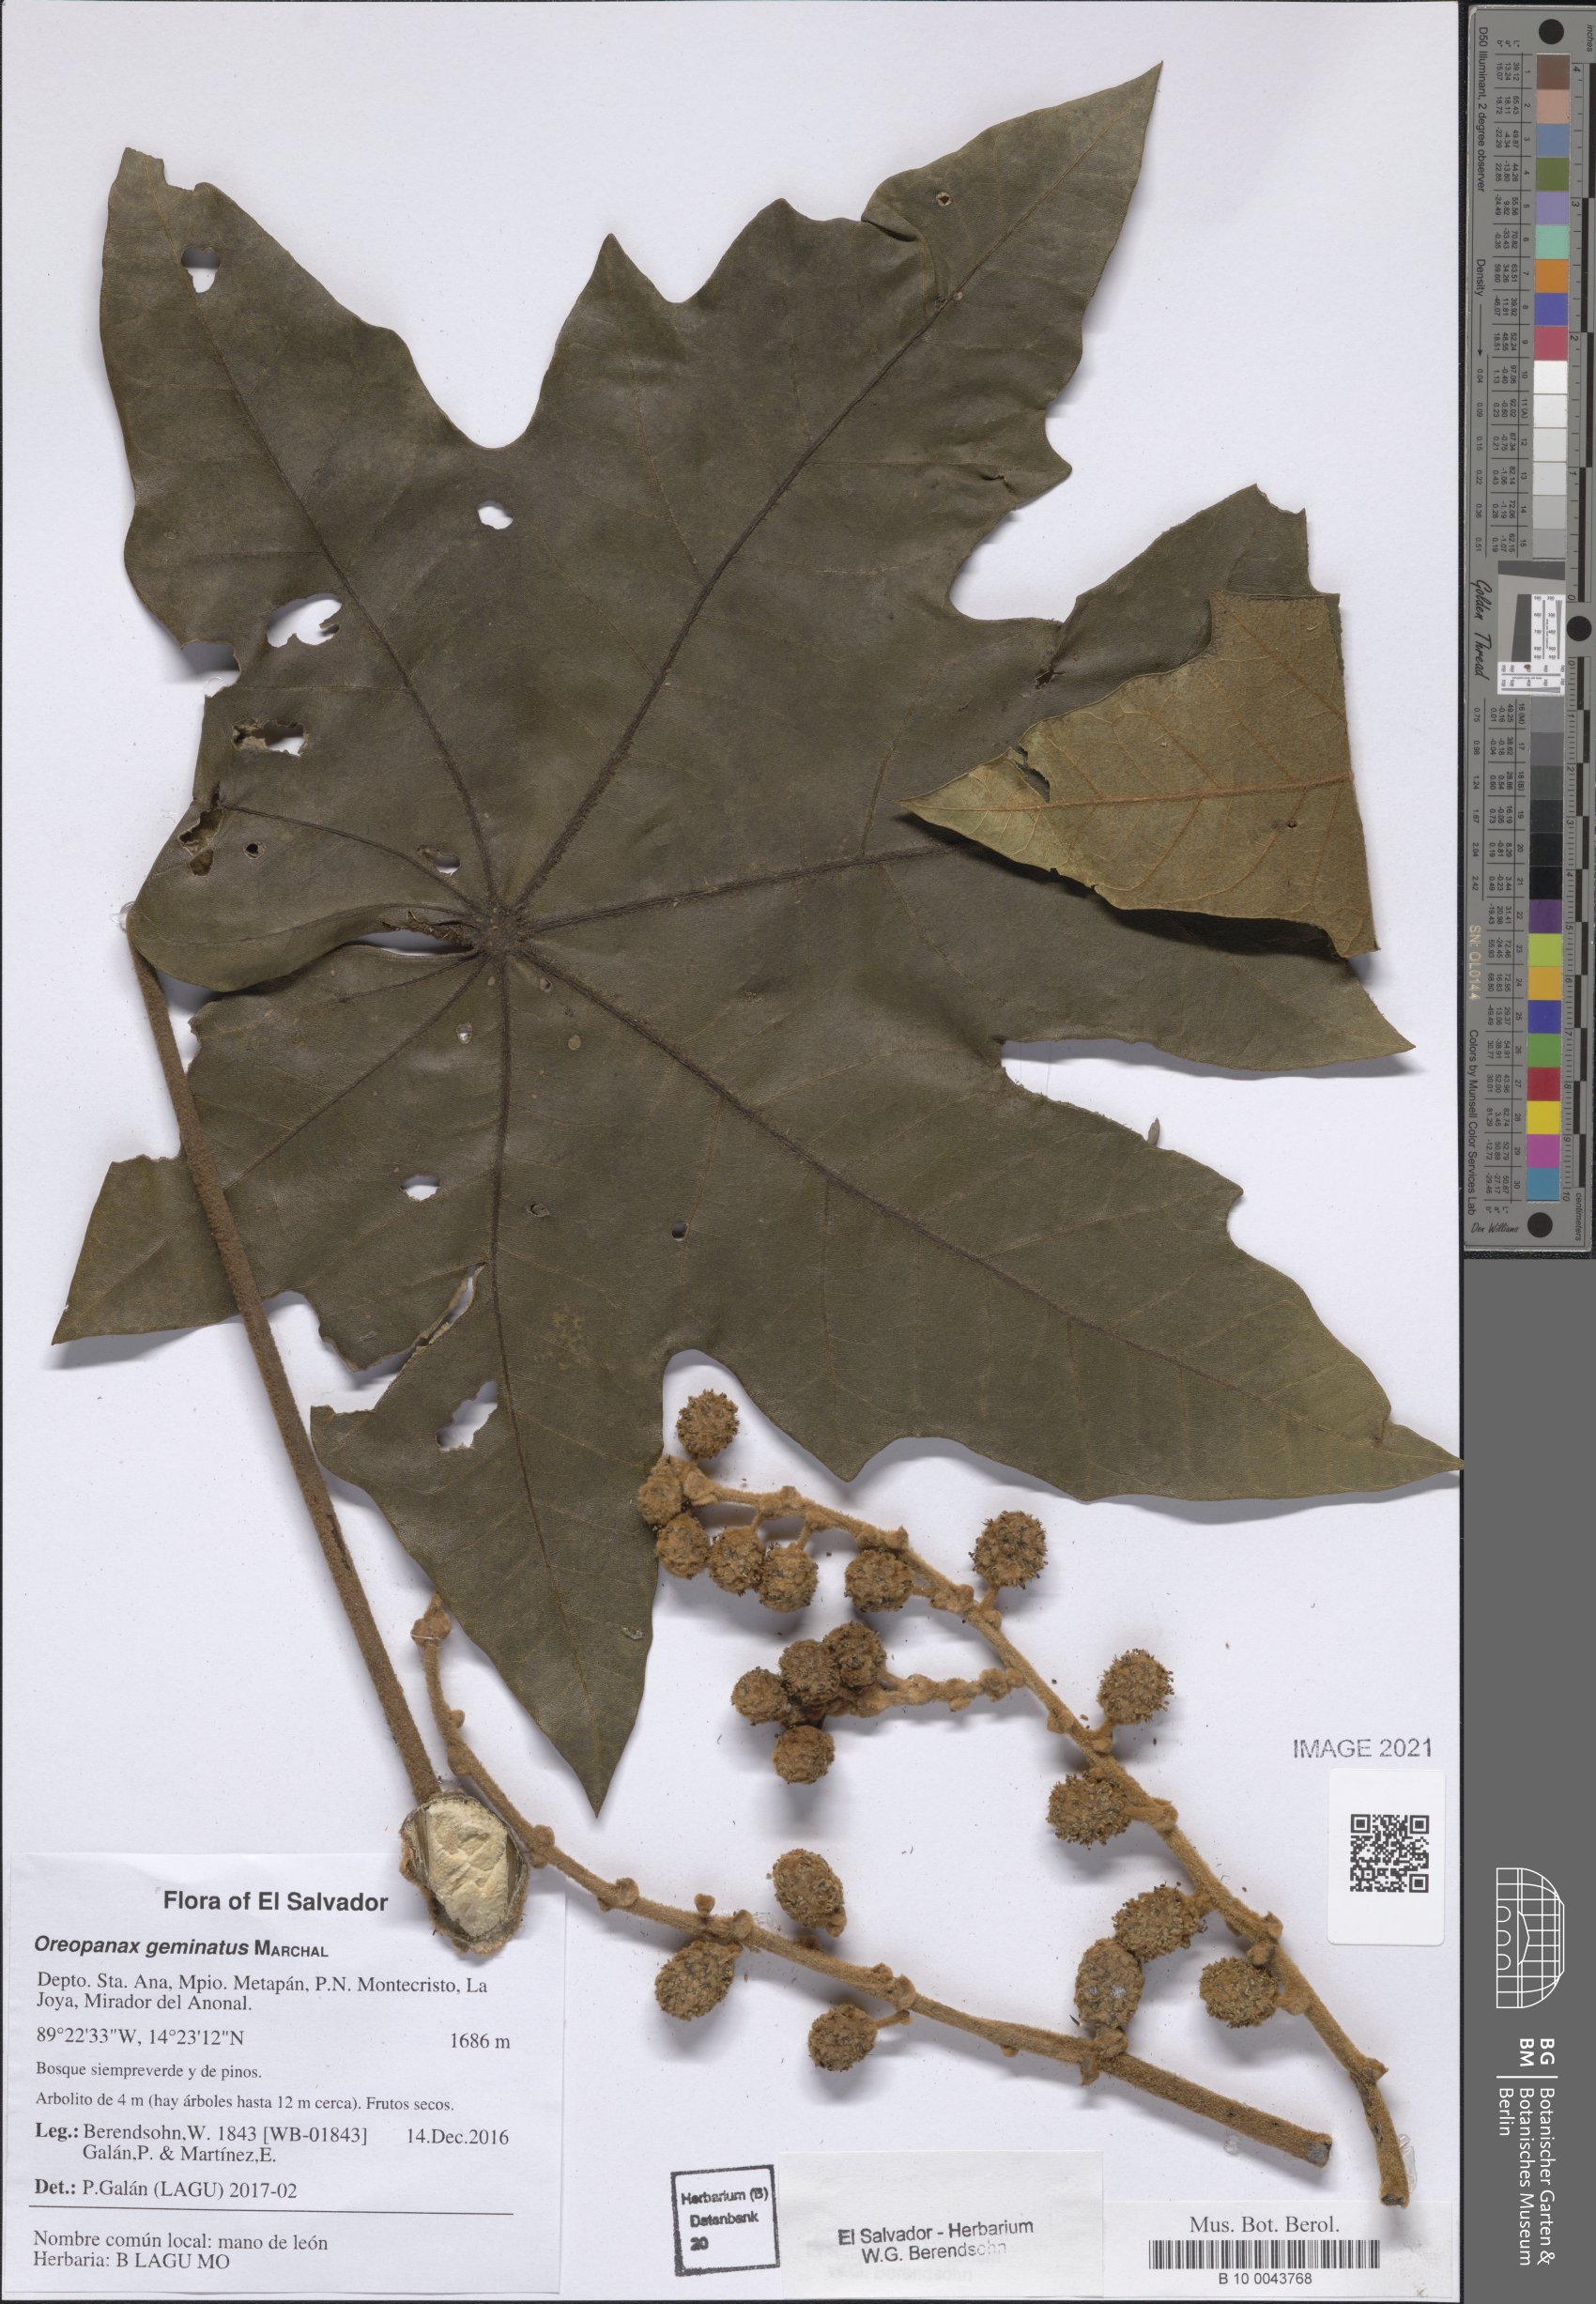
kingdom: Plantae
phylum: Tracheophyta
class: Magnoliopsida
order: Apiales
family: Araliaceae
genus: Oreopanax
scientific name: Oreopanax geminatus
